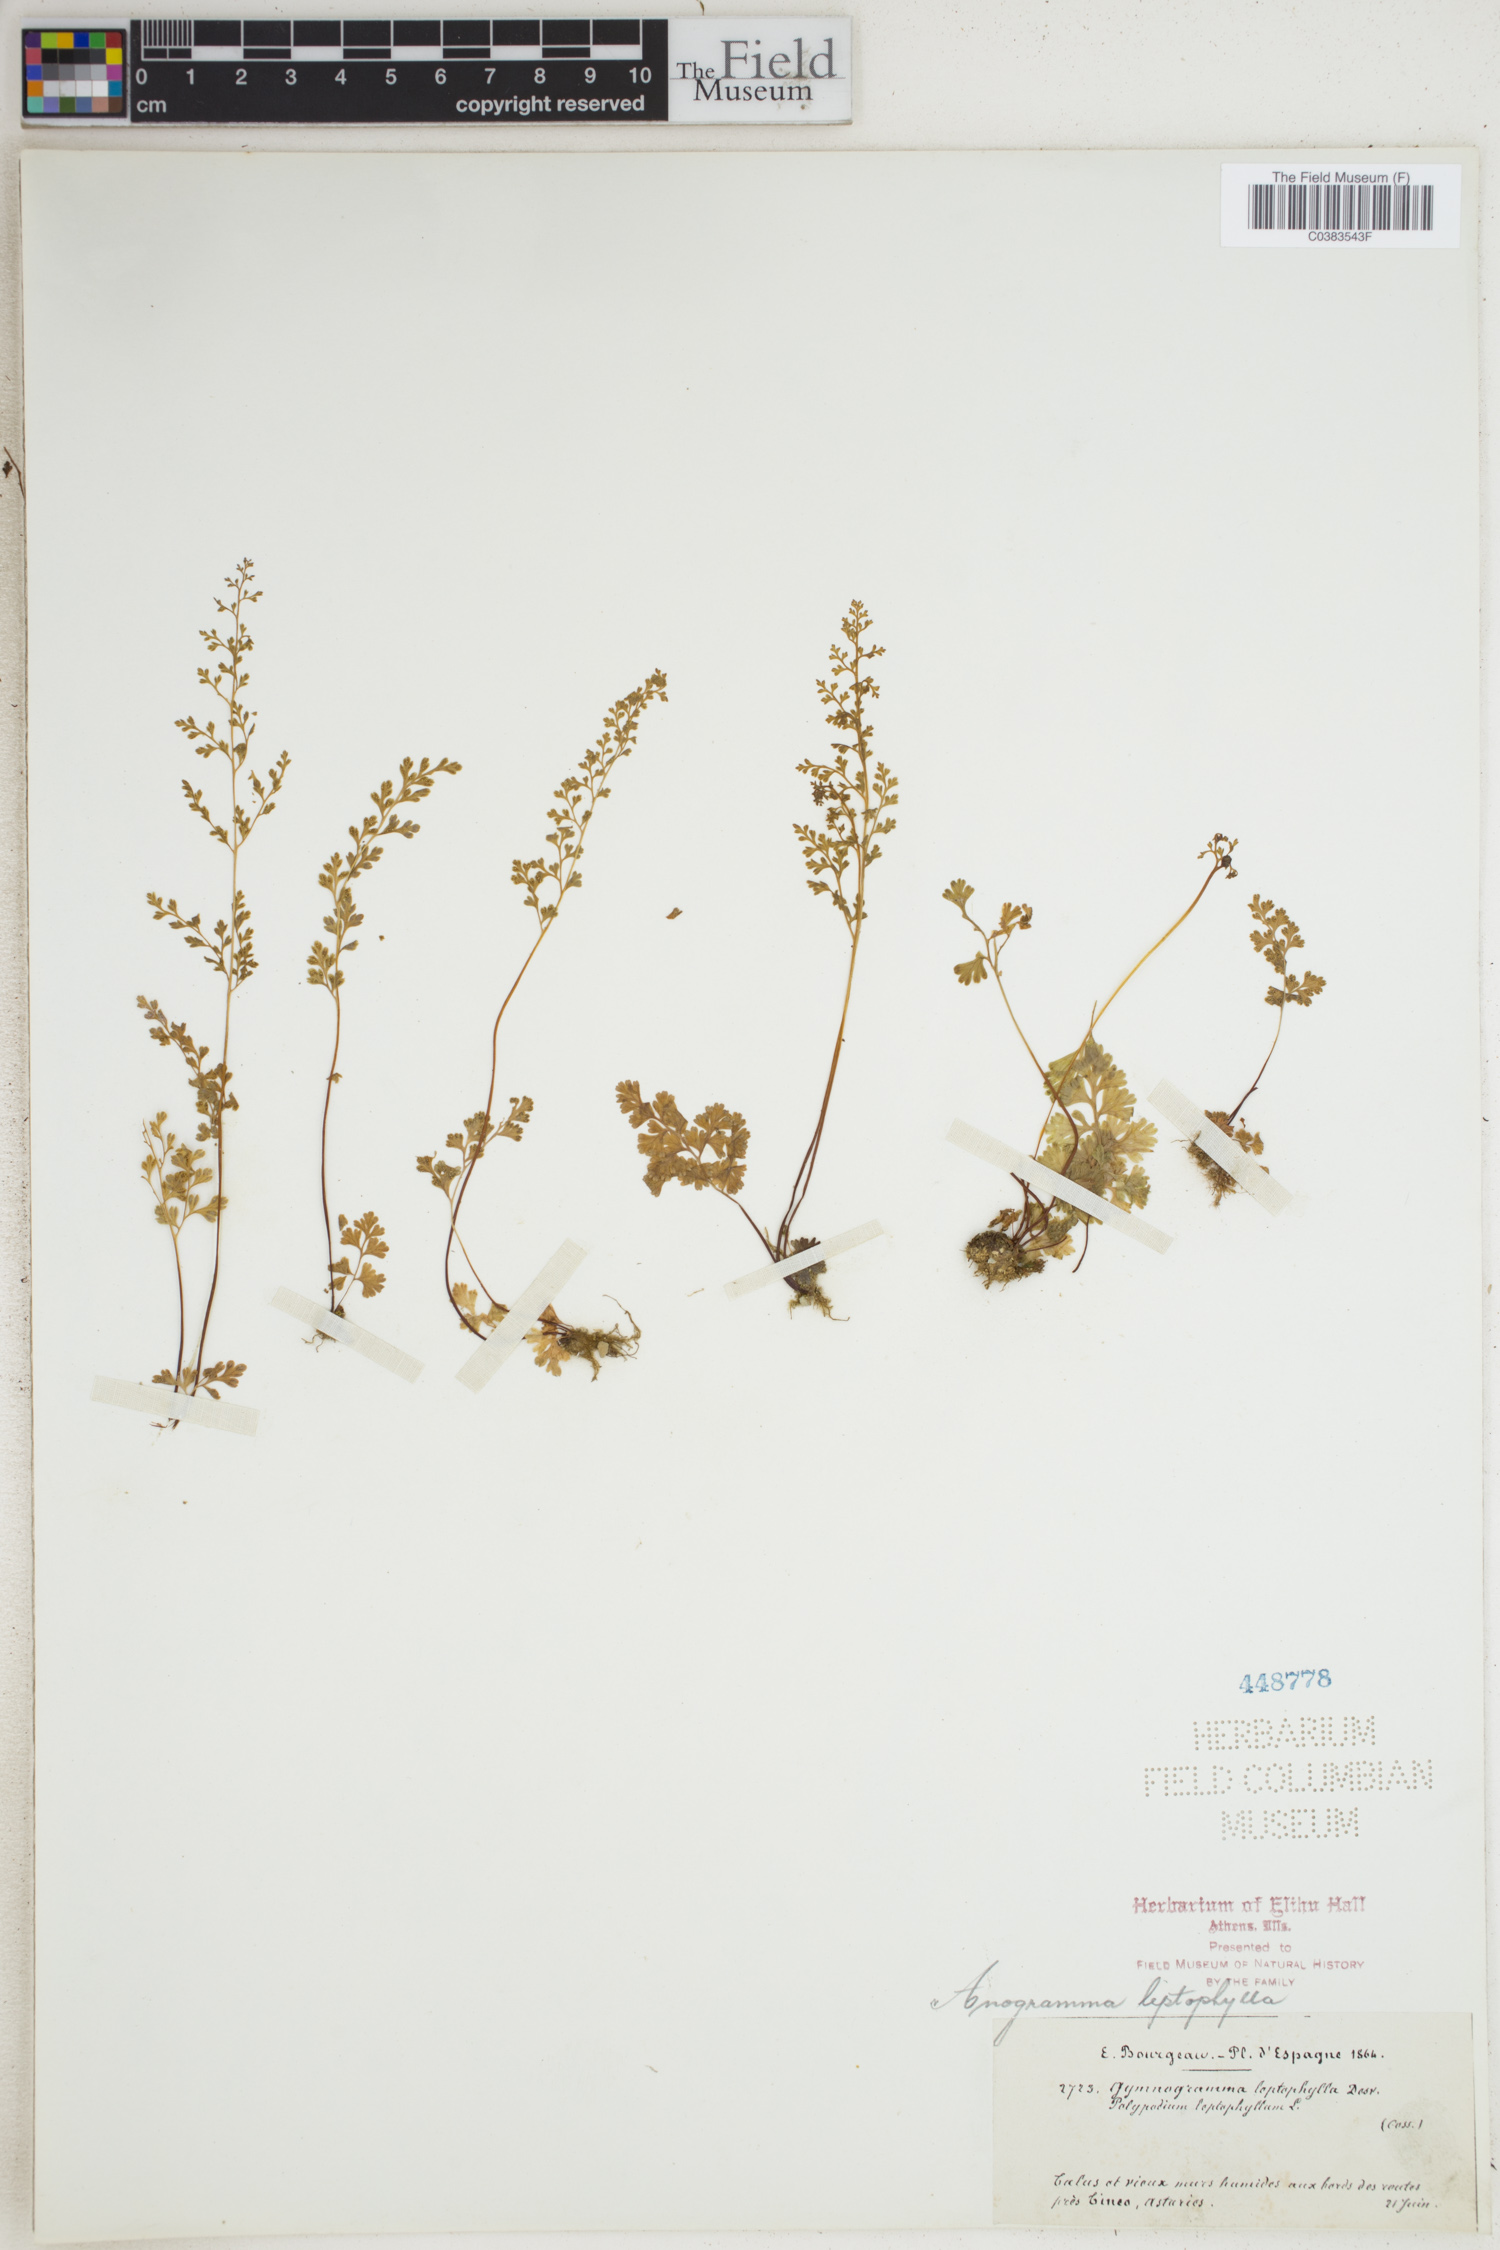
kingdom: Plantae
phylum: Tracheophyta
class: Polypodiopsida
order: Polypodiales
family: Pteridaceae
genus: Anogramma
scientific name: Anogramma leptophylla
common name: Jersey fern
